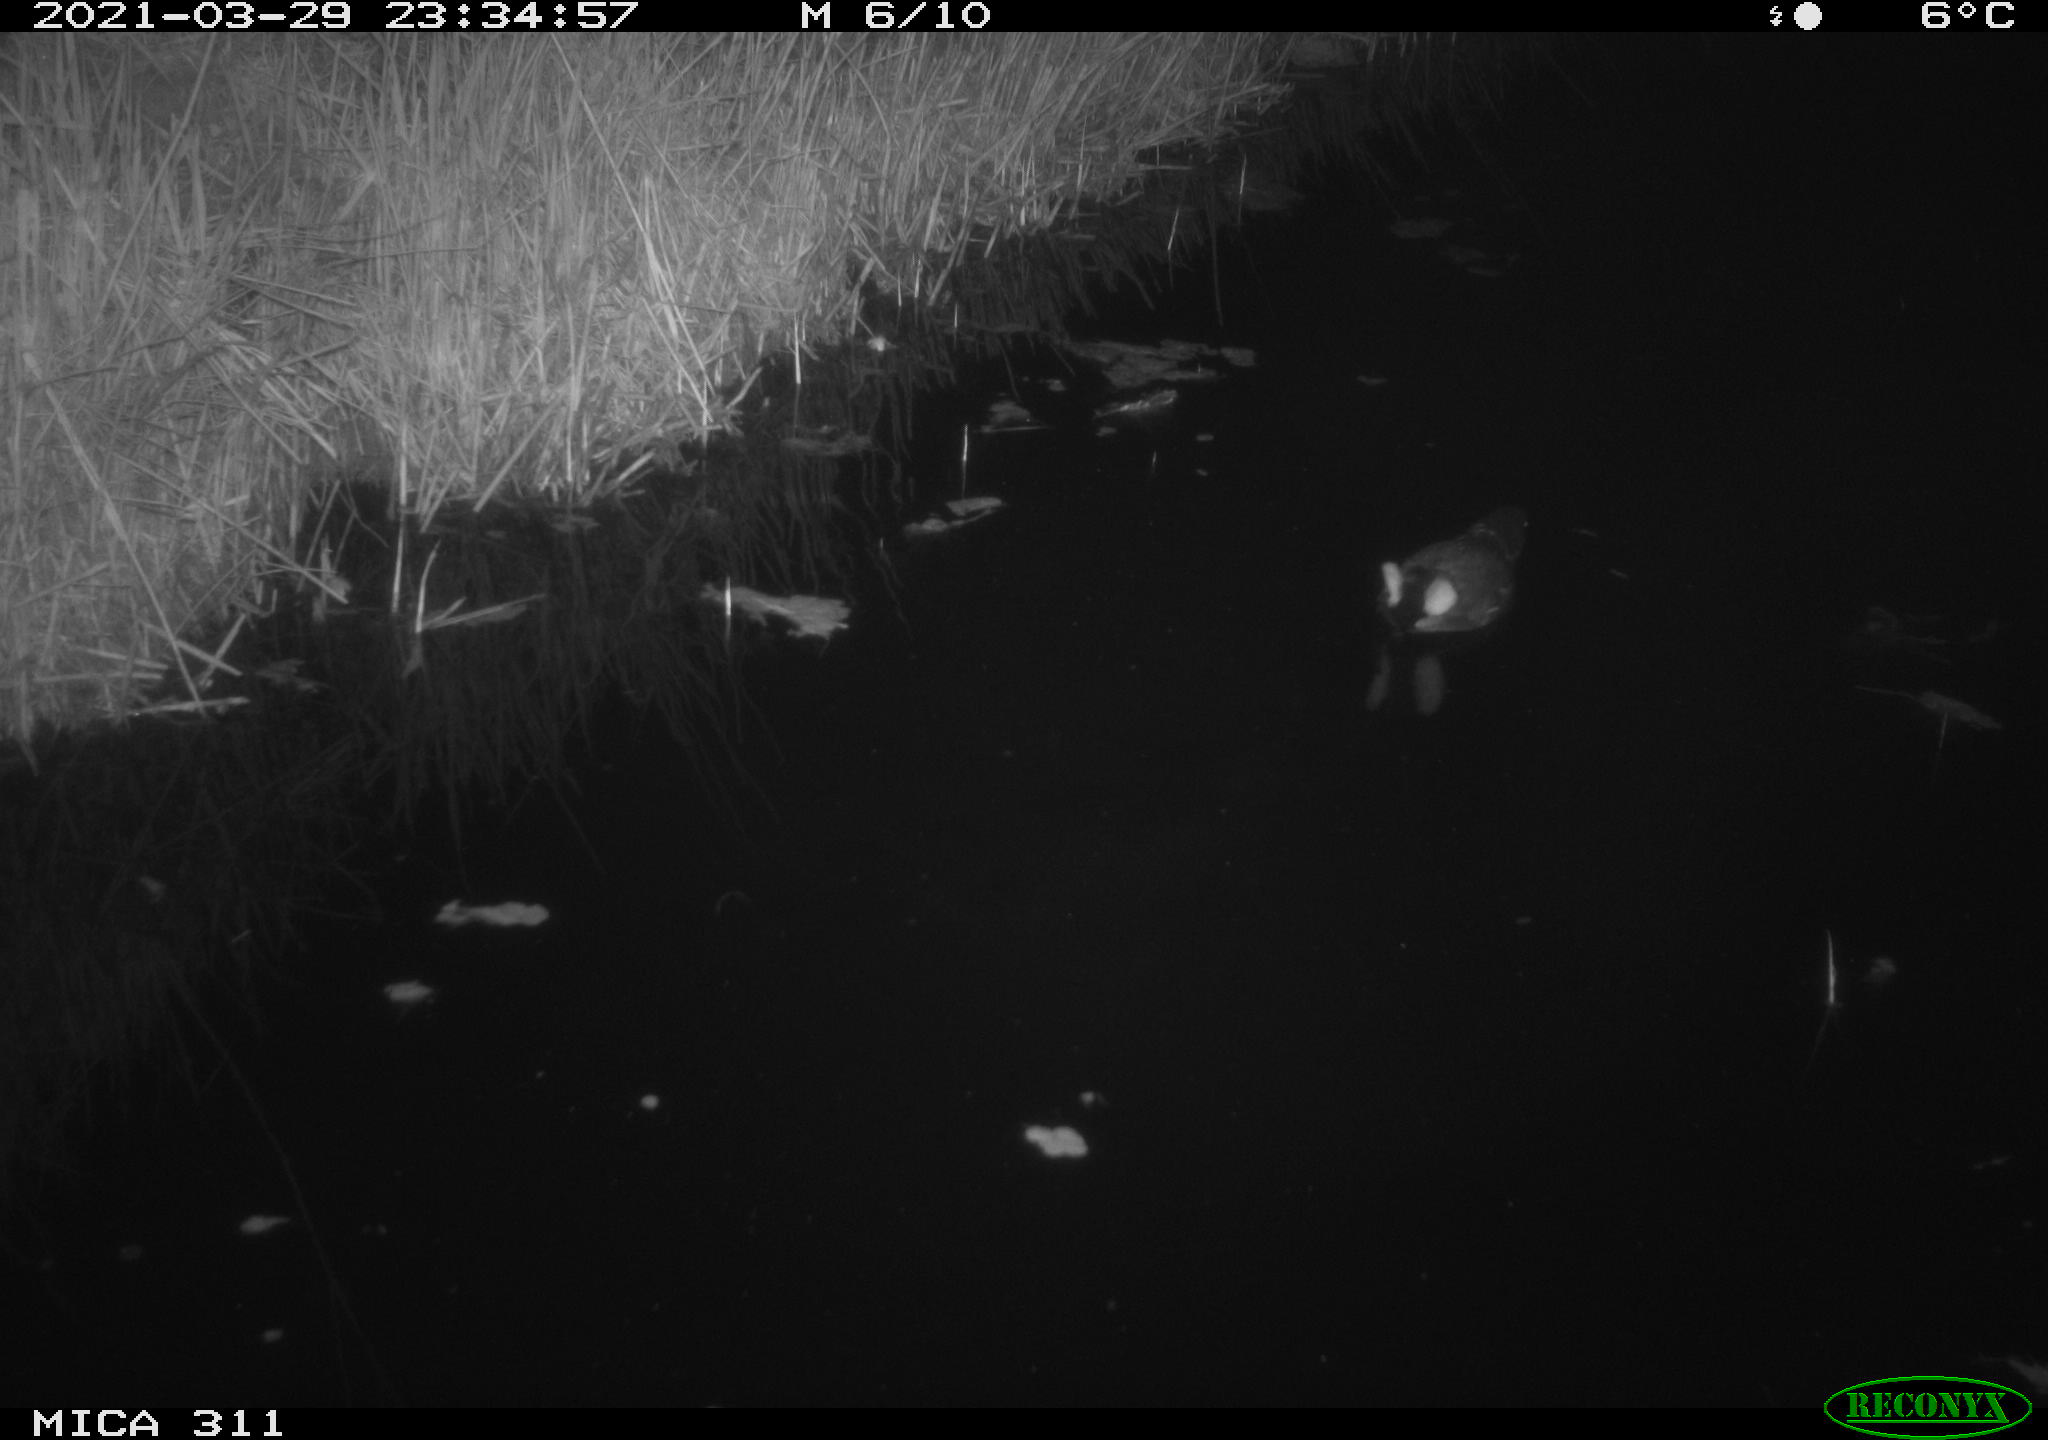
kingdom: Animalia
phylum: Chordata
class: Aves
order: Gruiformes
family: Rallidae
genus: Gallinula
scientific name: Gallinula chloropus
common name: Common moorhen
